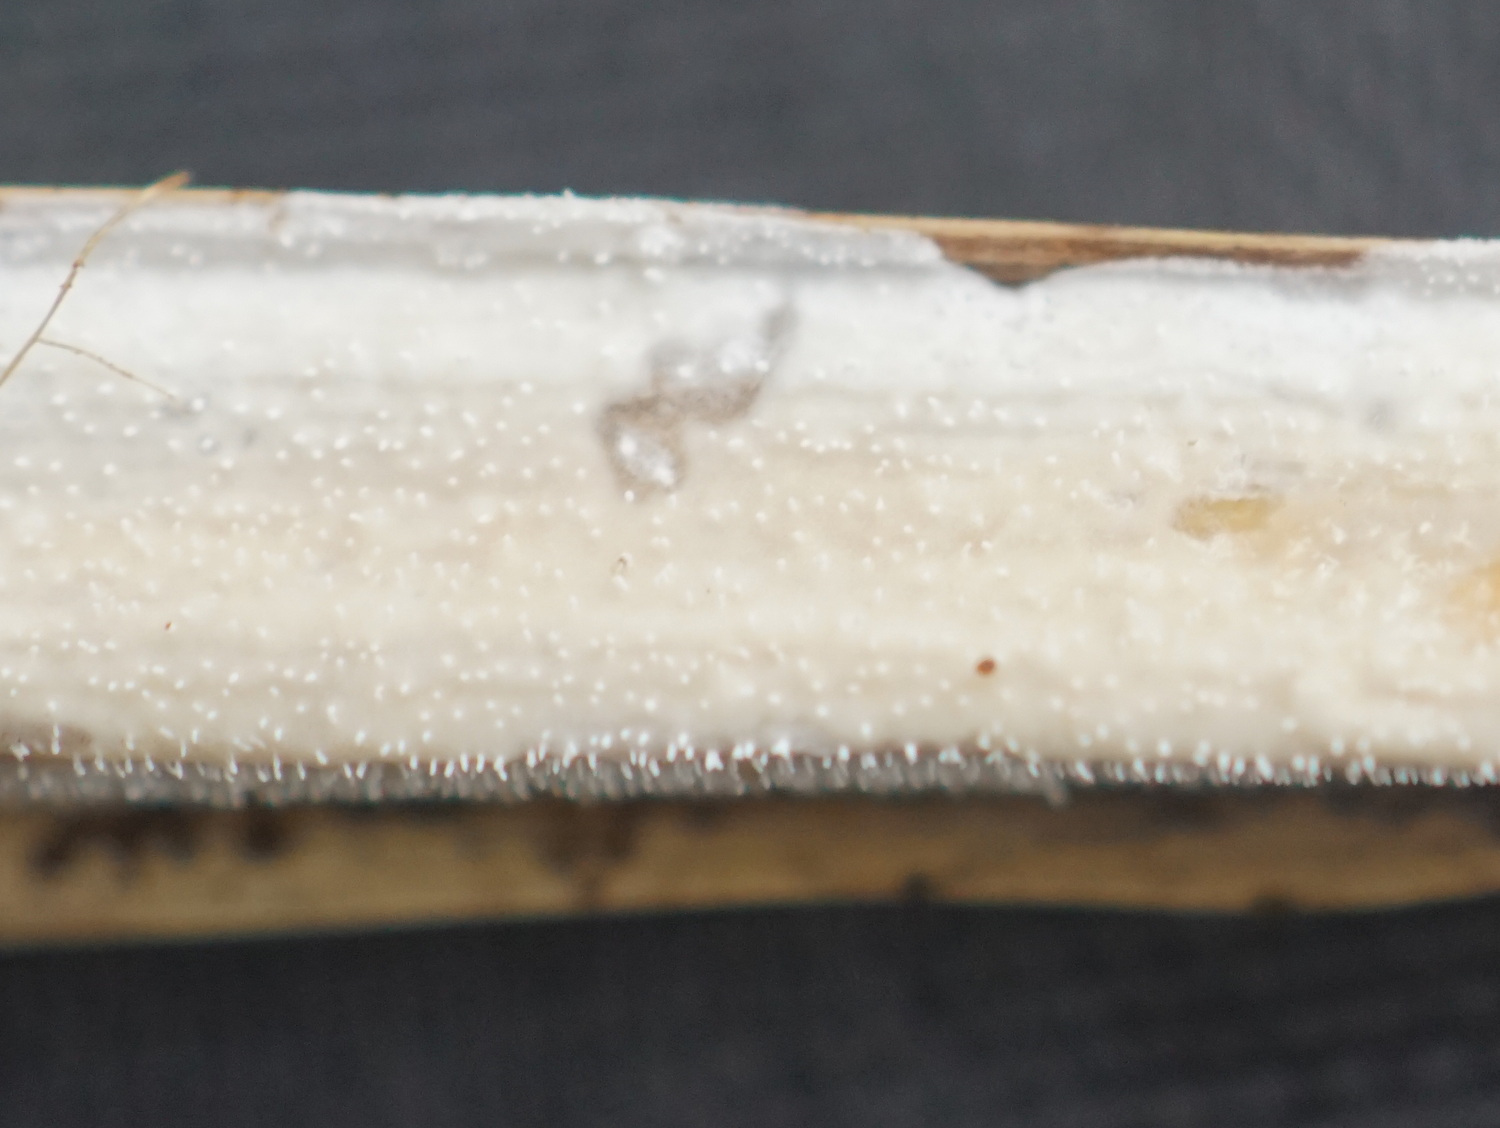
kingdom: Fungi
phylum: Basidiomycota
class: Agaricomycetes
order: Polyporales
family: Polyporaceae
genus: Epithele
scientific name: Epithele typhae
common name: starpig
